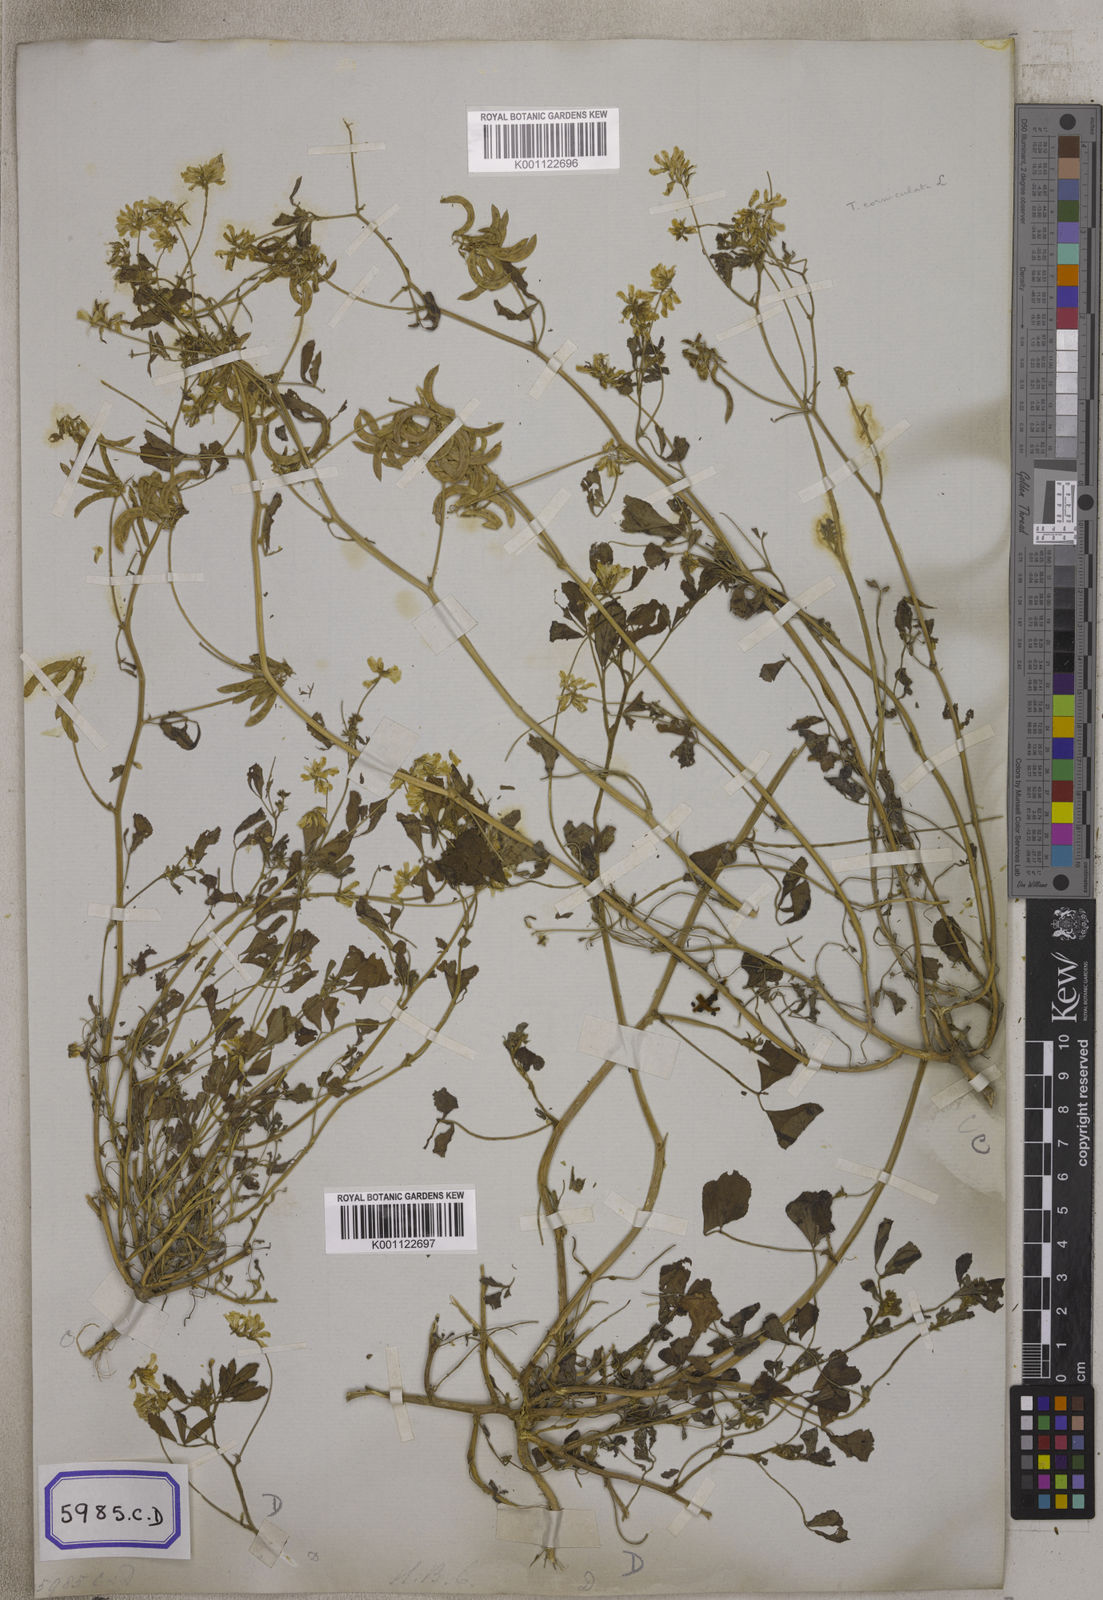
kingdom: Plantae
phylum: Tracheophyta
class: Magnoliopsida
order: Fabales
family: Fabaceae
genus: Trigonella
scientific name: Trigonella esculenta
